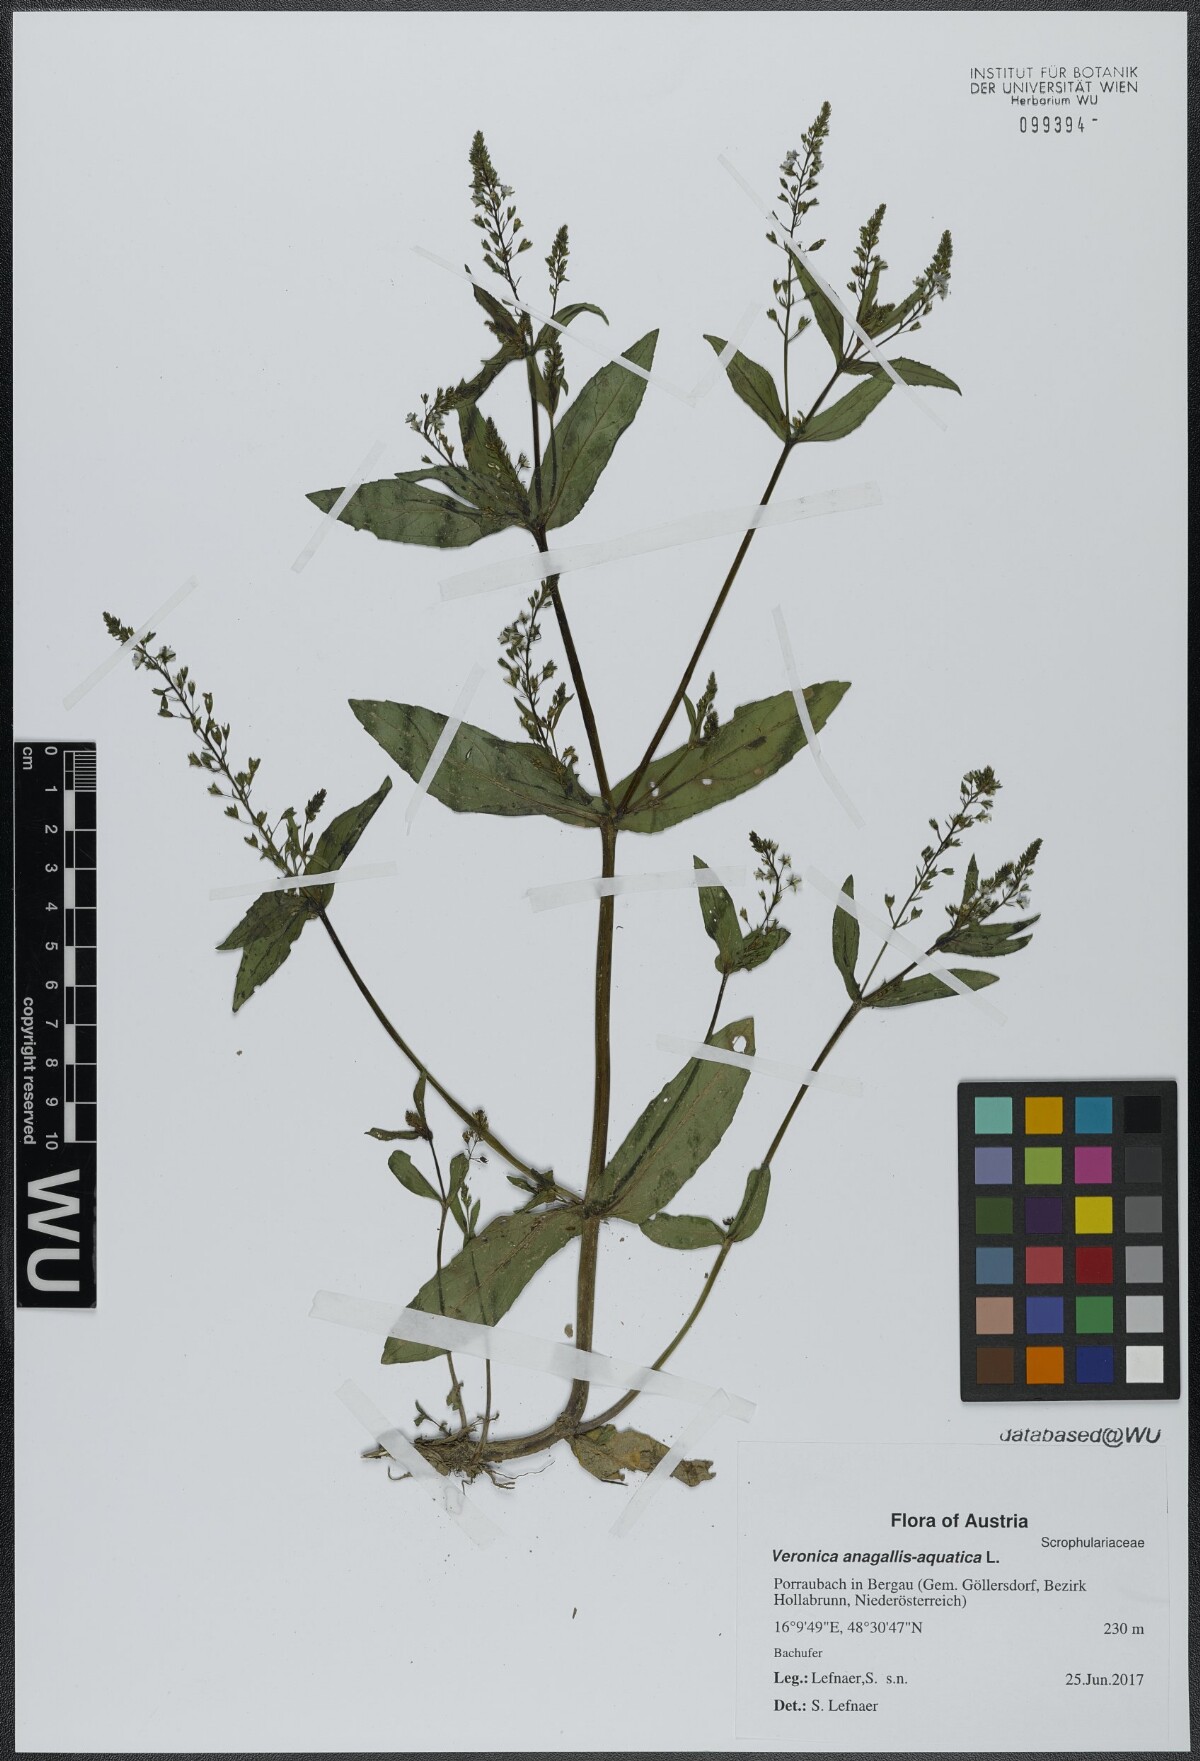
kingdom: Plantae
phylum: Tracheophyta
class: Magnoliopsida
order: Lamiales
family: Plantaginaceae
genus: Veronica
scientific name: Veronica anagallis-aquatica
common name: Water speedwell
